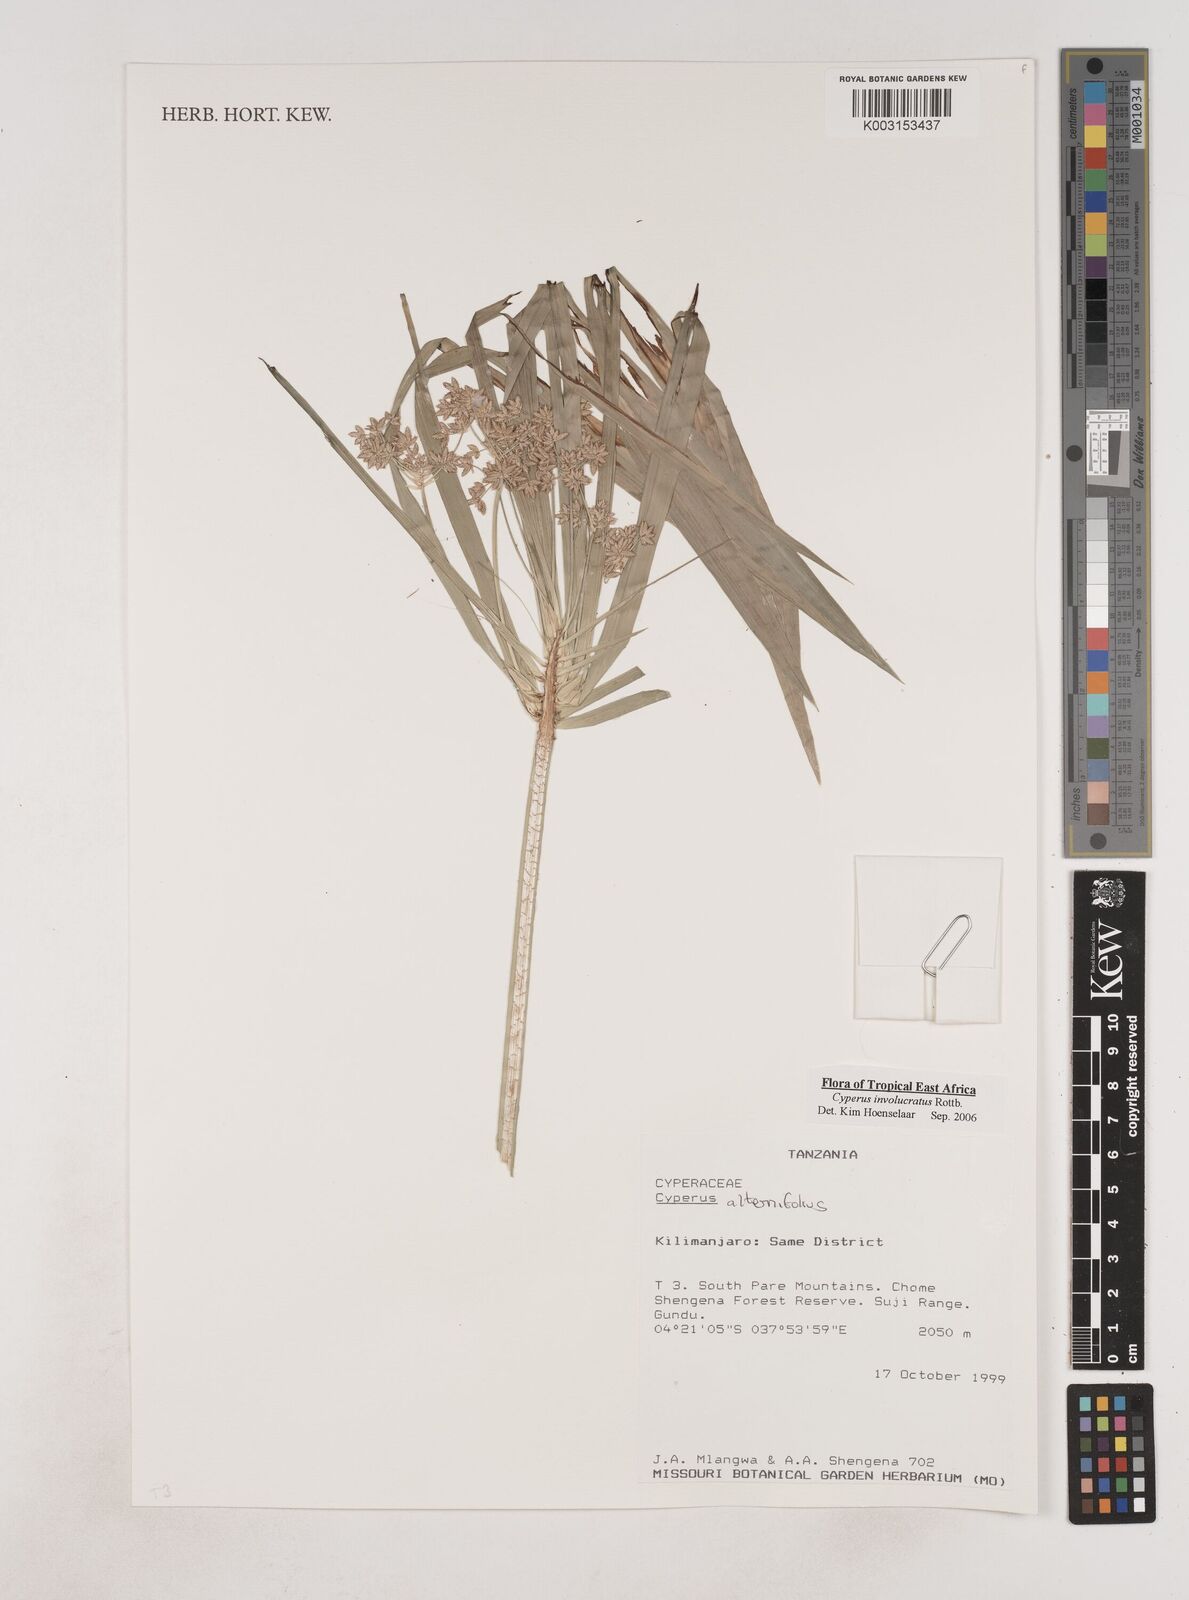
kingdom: Plantae
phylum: Tracheophyta
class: Liliopsida
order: Poales
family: Cyperaceae
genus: Cyperus
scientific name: Cyperus
